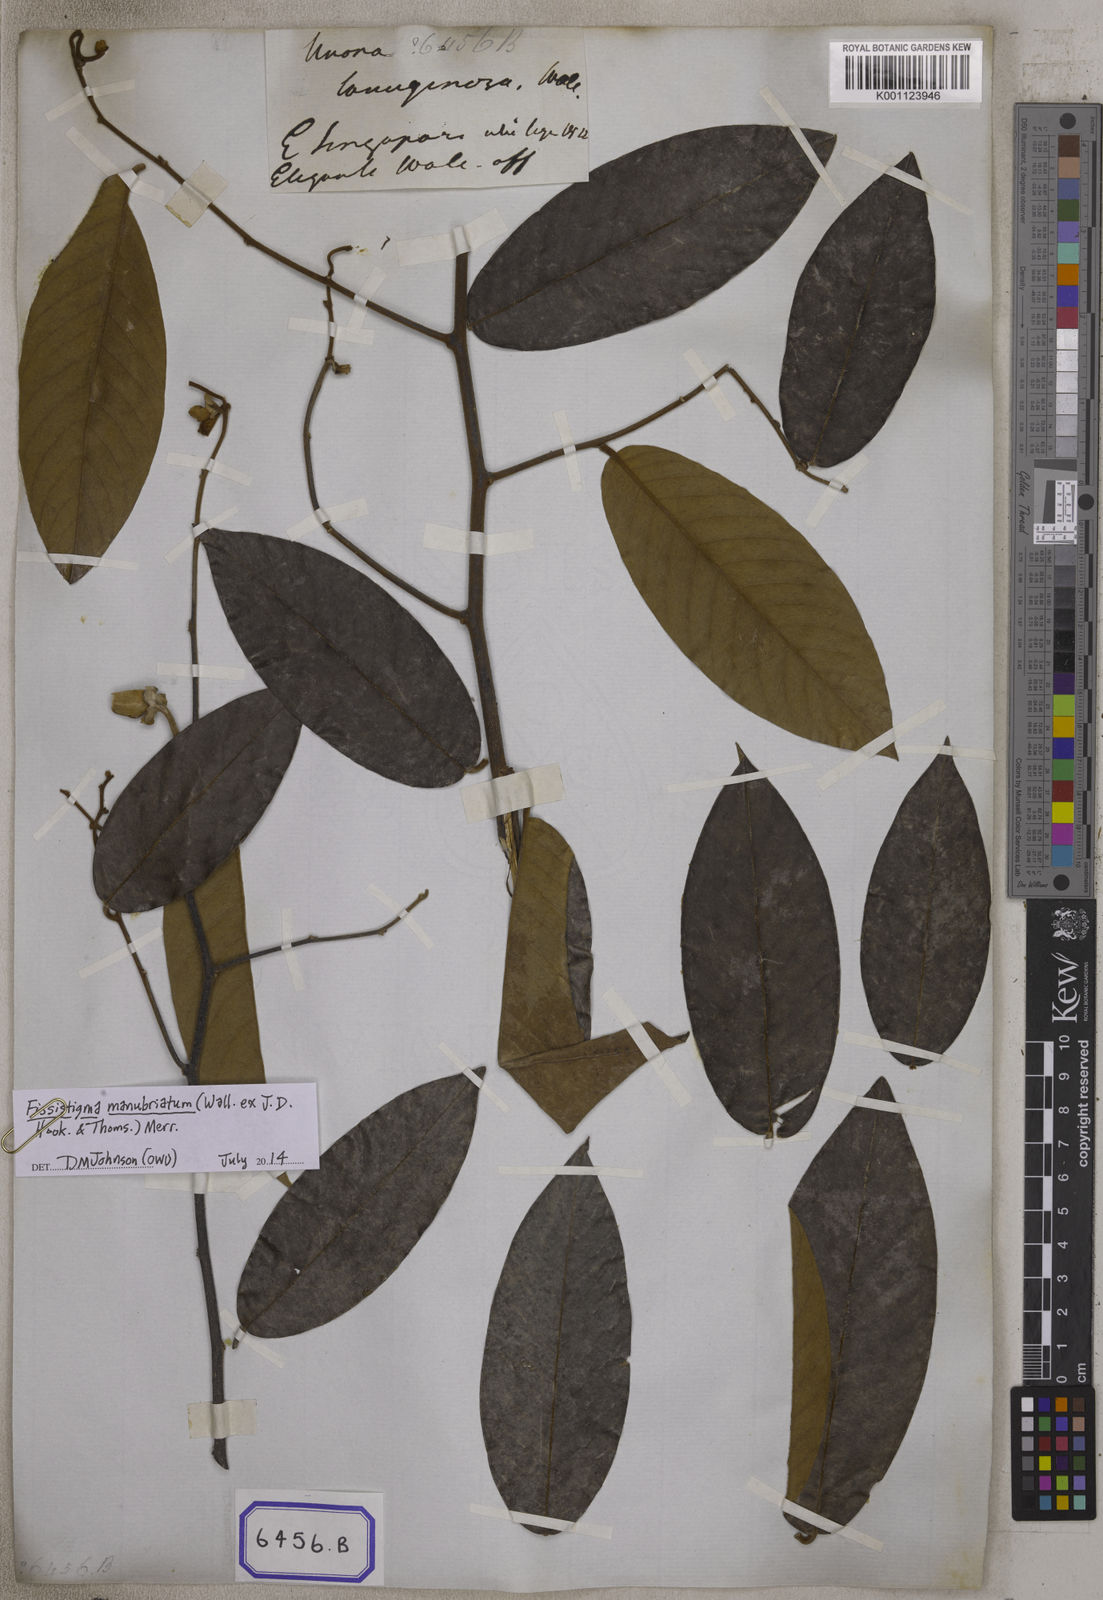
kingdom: Plantae
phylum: Tracheophyta
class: Magnoliopsida
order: Magnoliales
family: Annonaceae
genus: Fissistigma
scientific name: Fissistigma manubriatum
